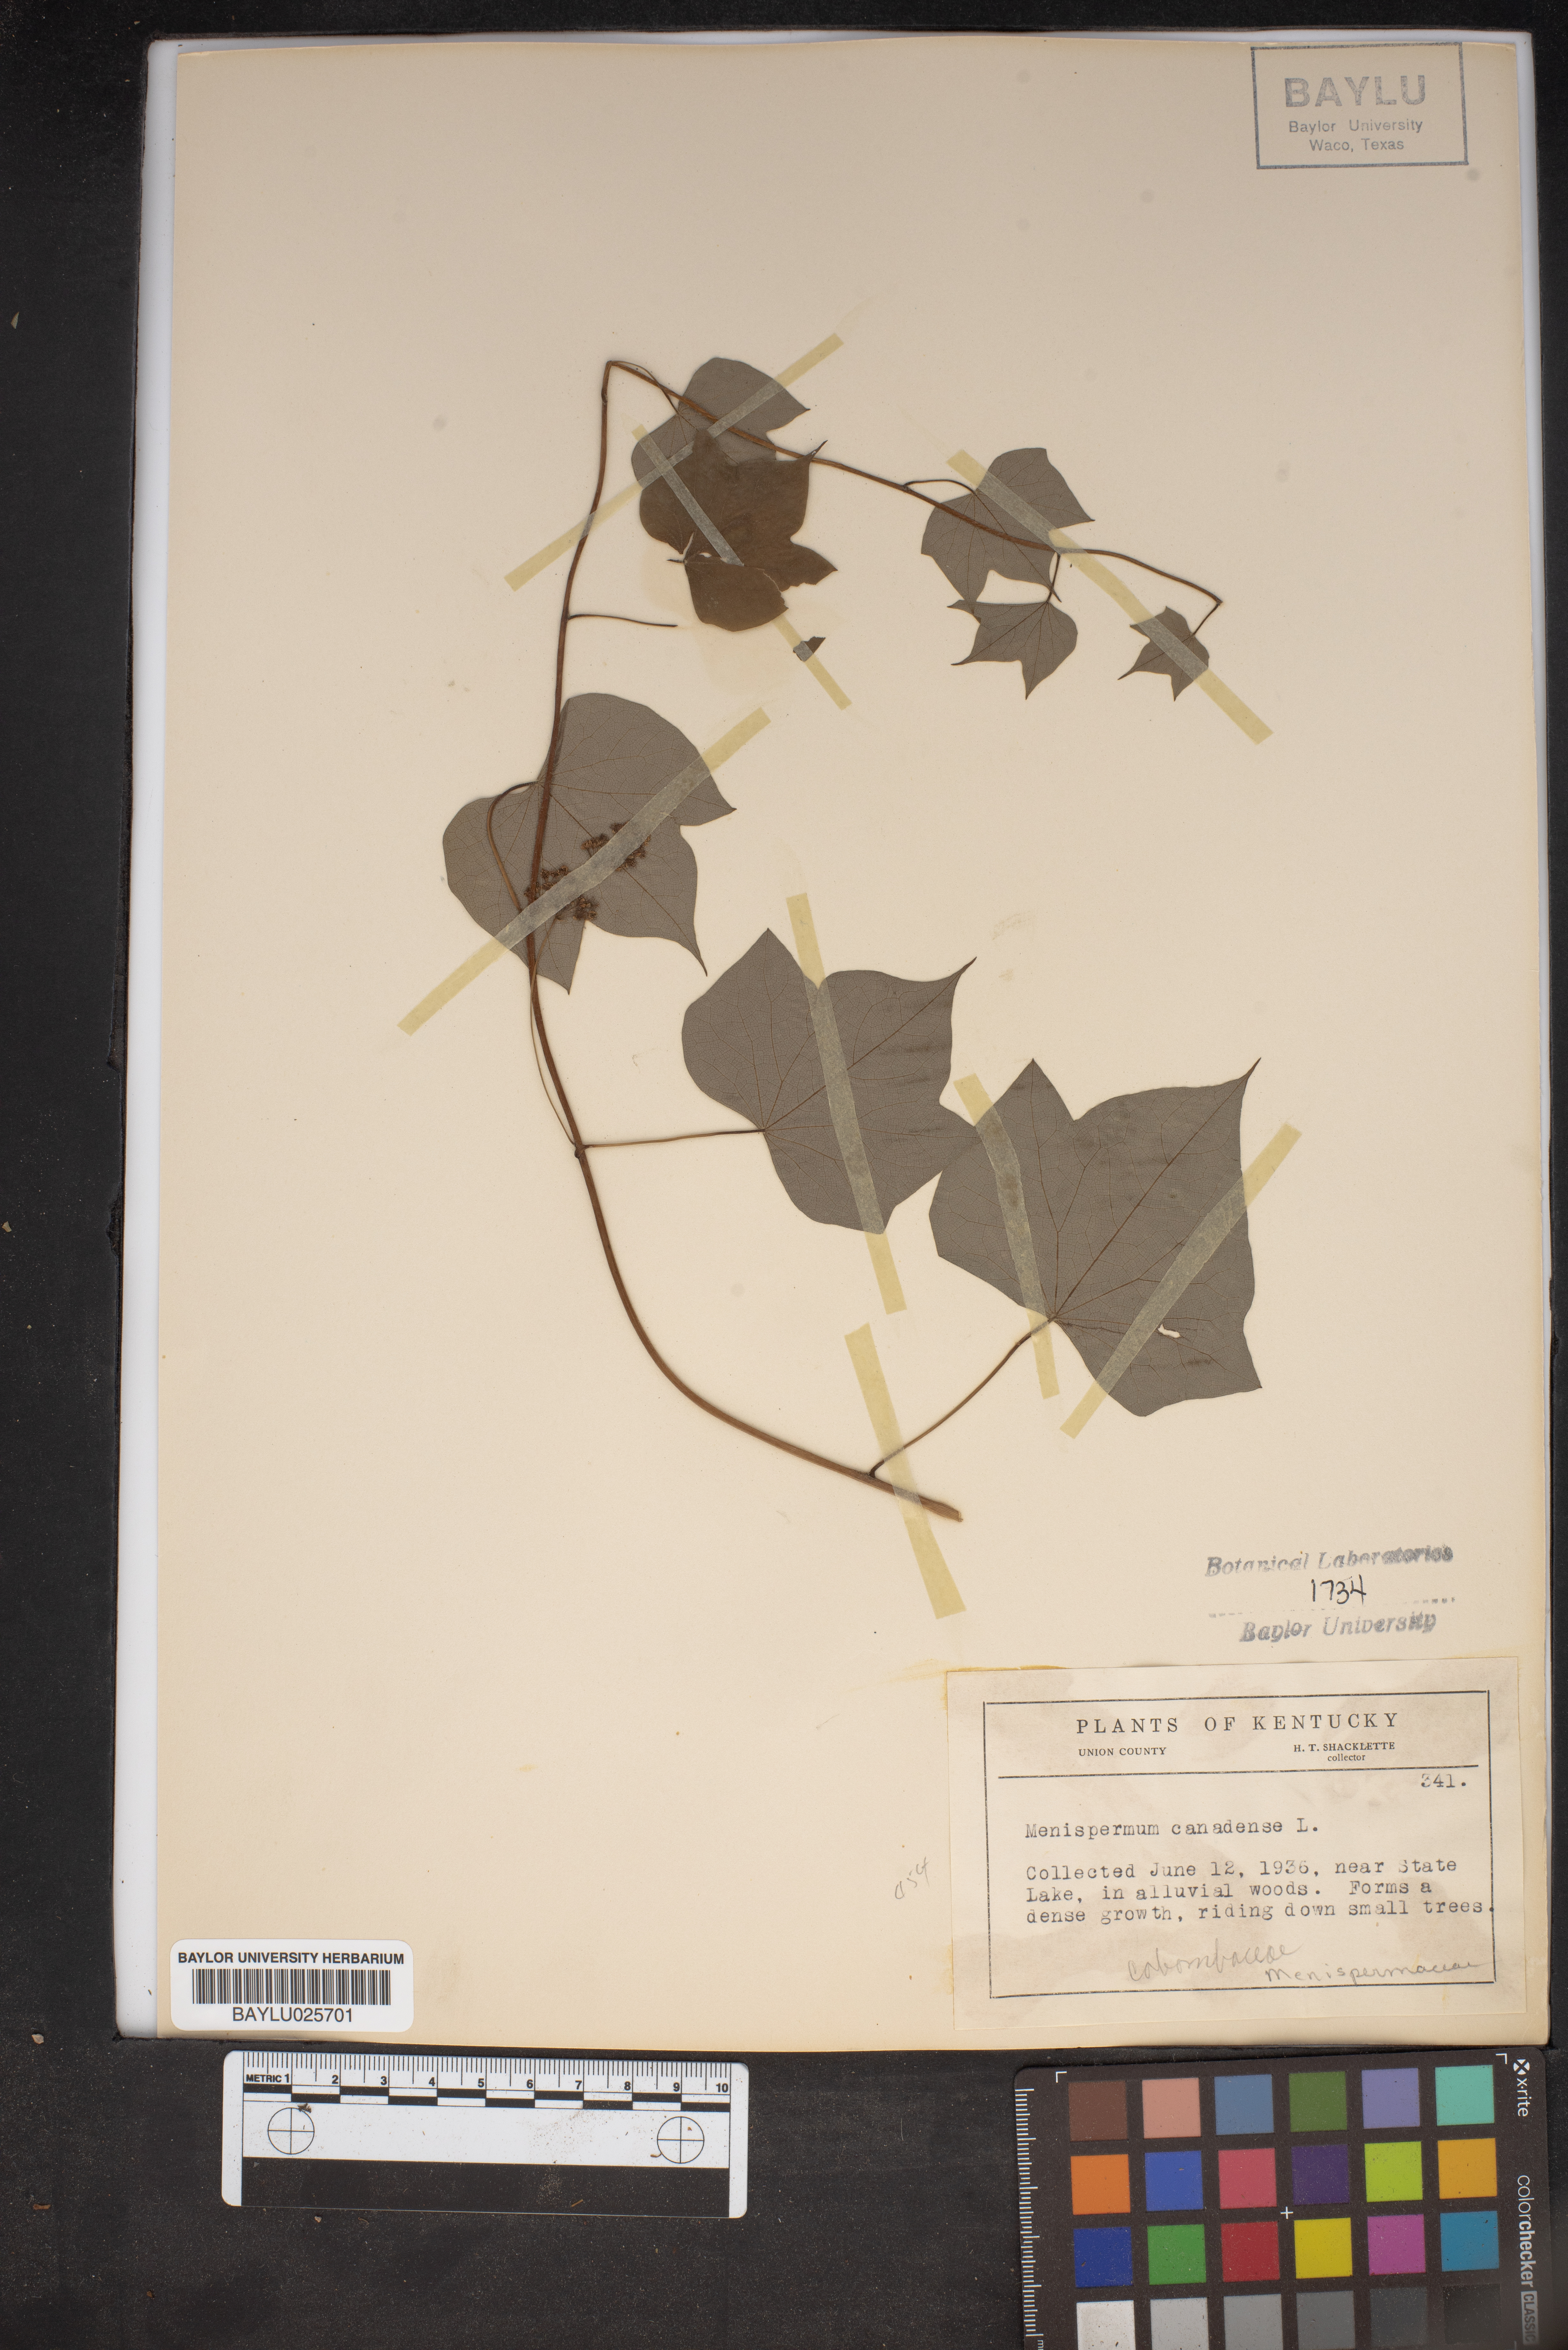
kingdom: Plantae
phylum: Tracheophyta
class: Magnoliopsida
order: Ranunculales
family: Menispermaceae
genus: Menispermum
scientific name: Menispermum canadense
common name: Moonseed
